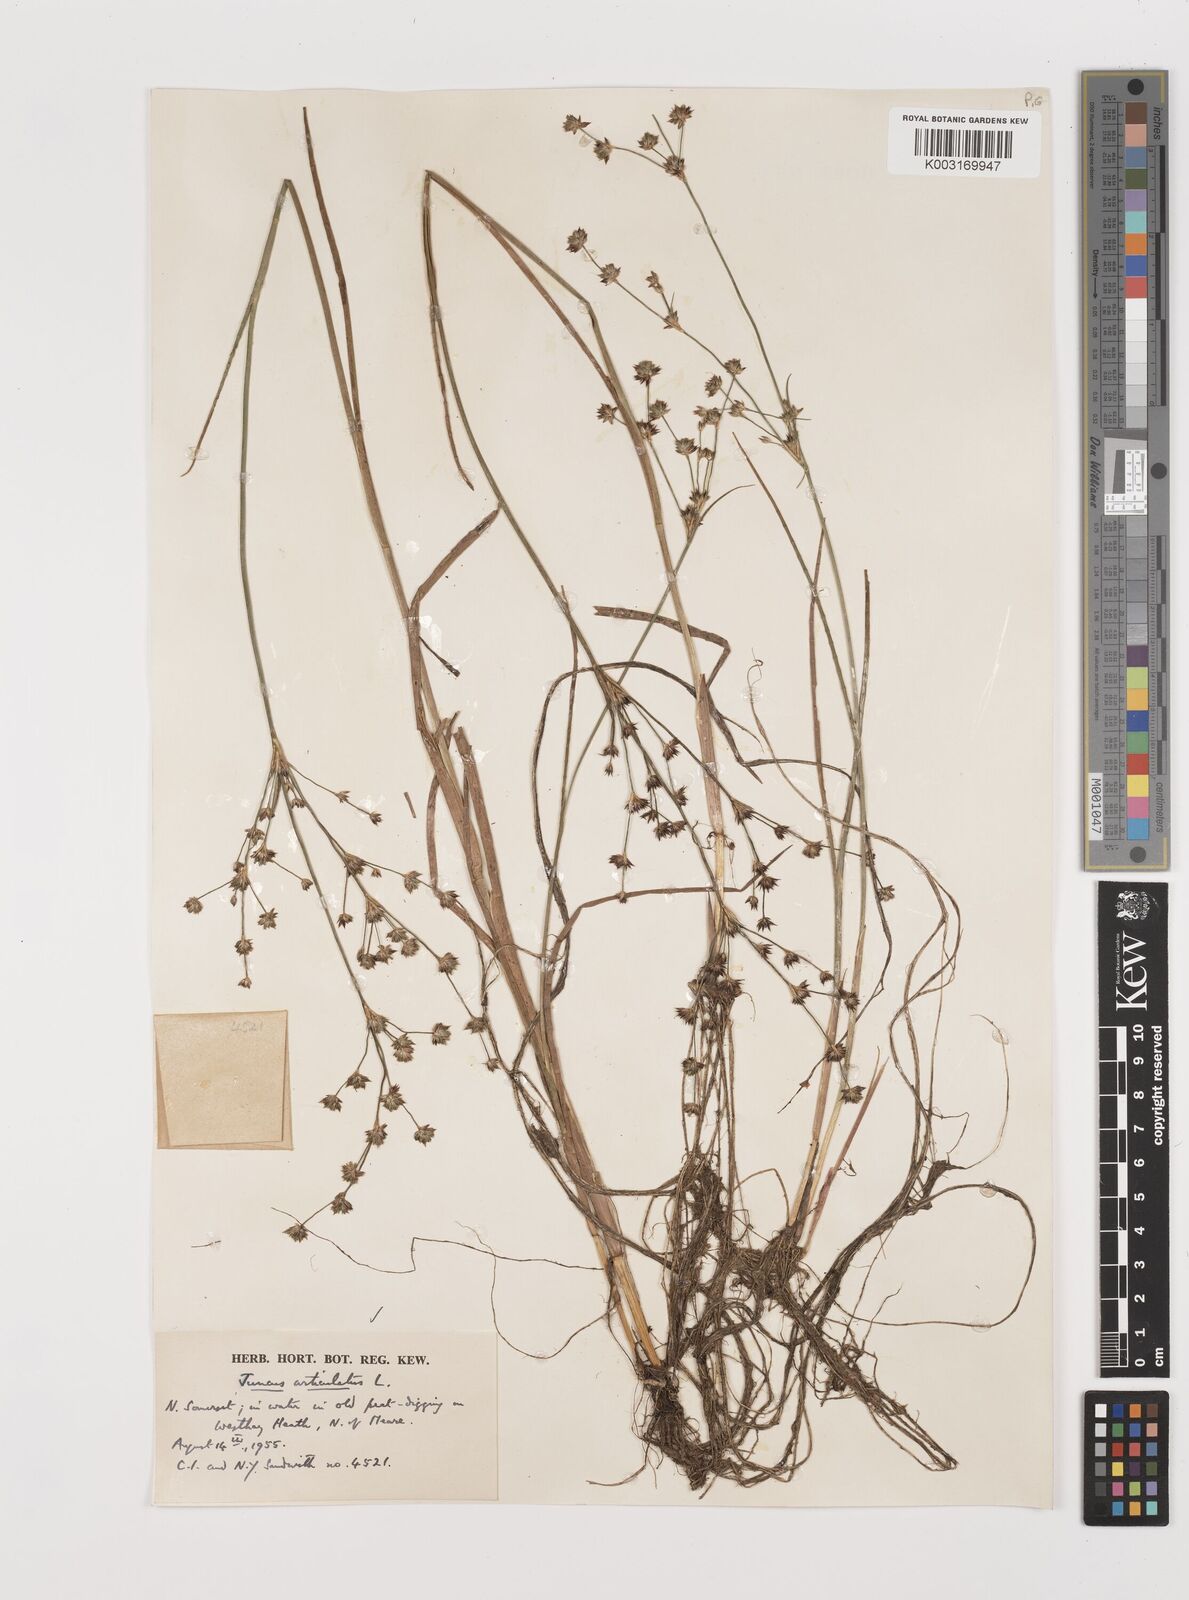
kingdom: Plantae
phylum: Tracheophyta
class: Liliopsida
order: Poales
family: Juncaceae
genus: Juncus
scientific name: Juncus articulatus
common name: Jointed rush
